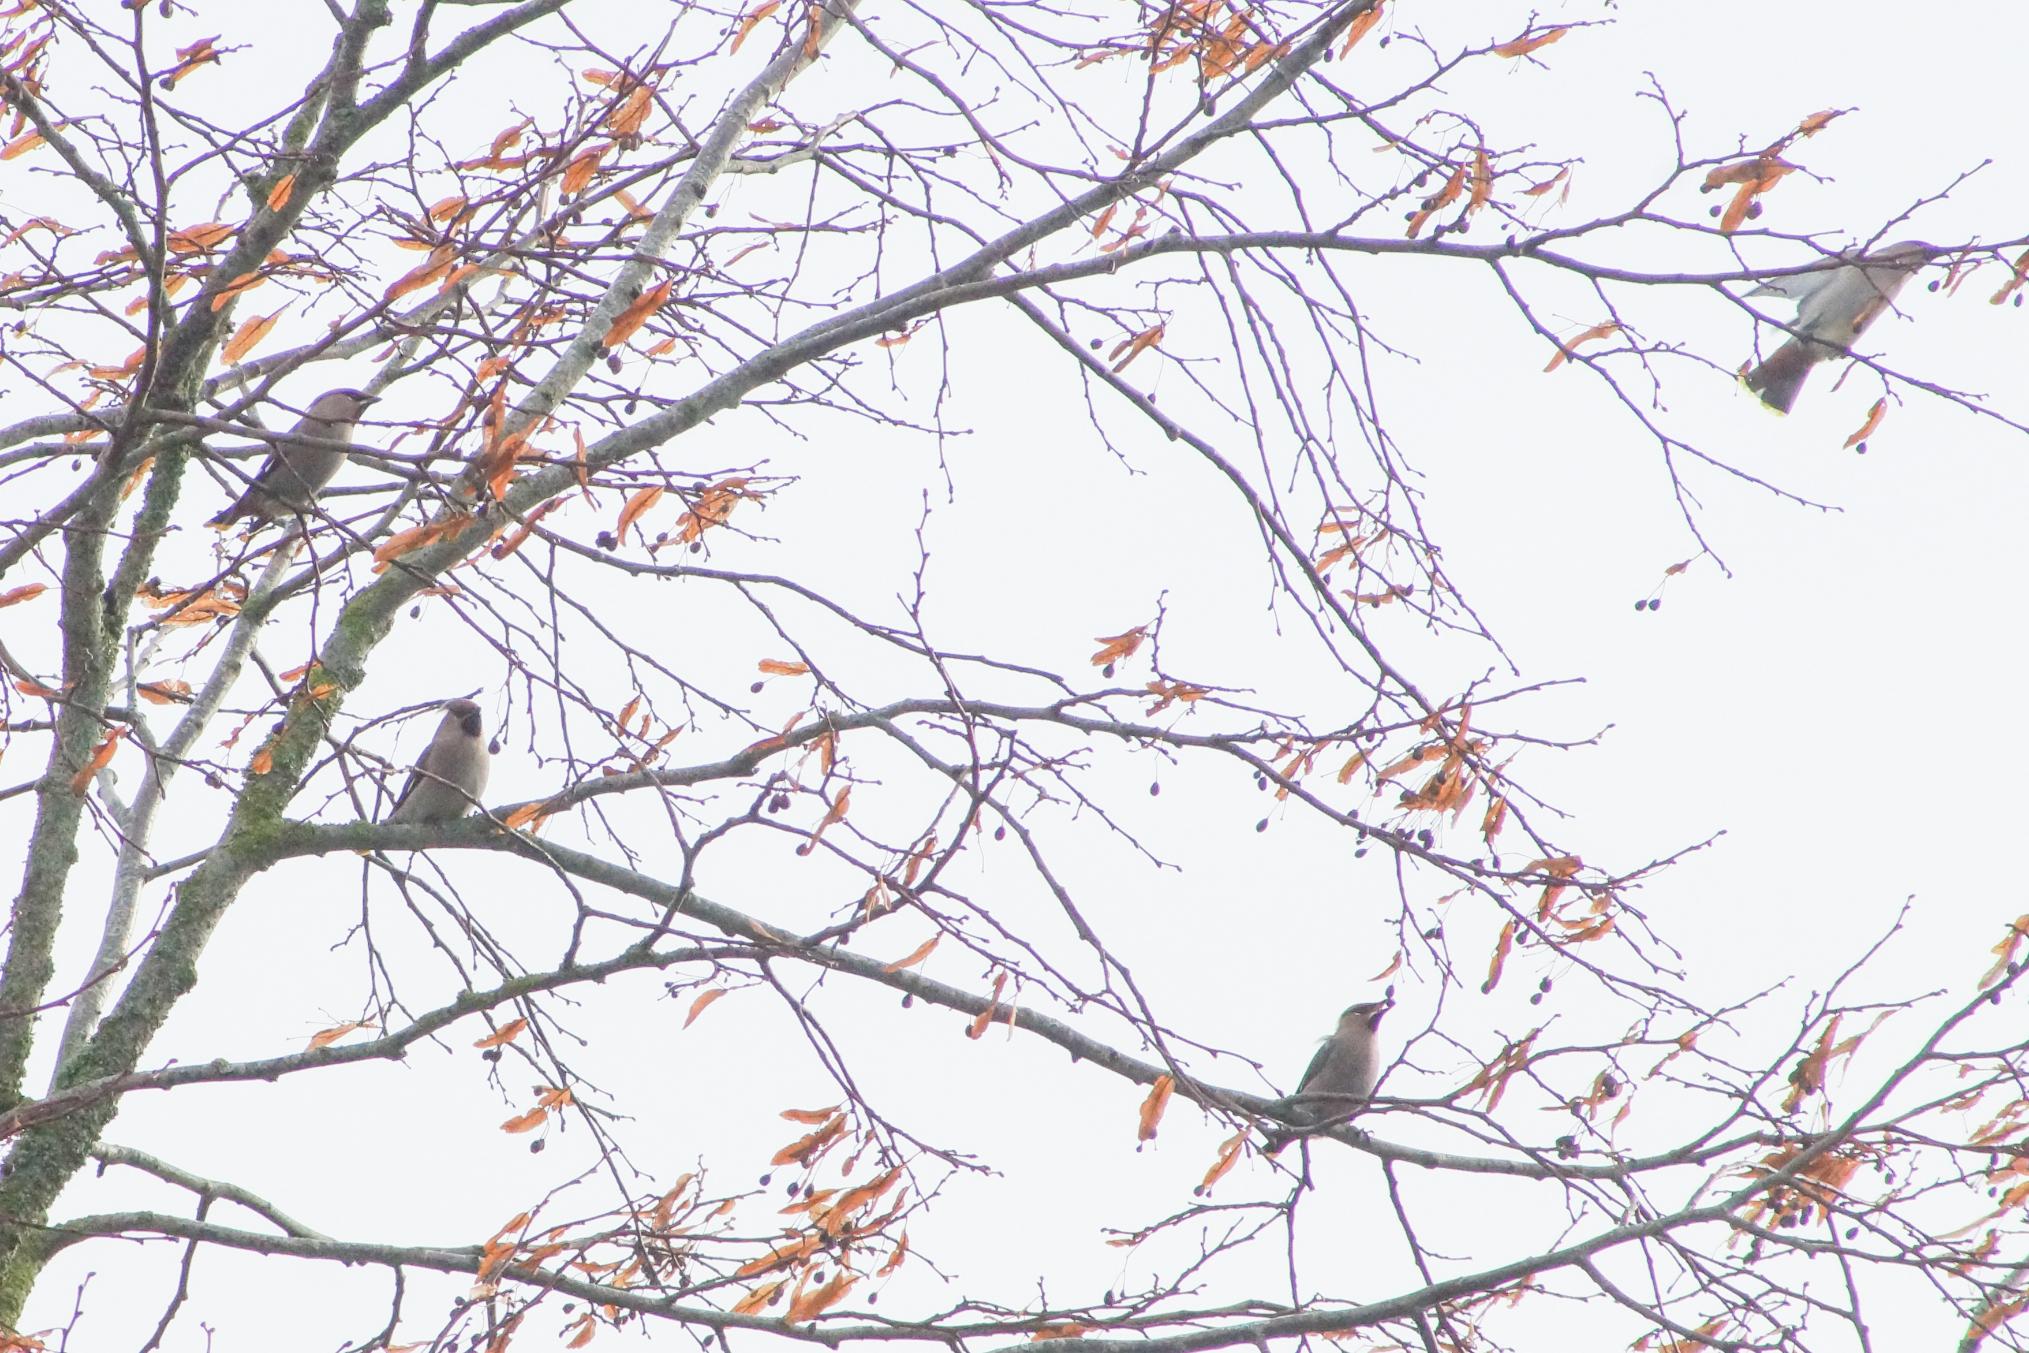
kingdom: Animalia
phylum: Chordata
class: Aves
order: Passeriformes
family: Bombycillidae
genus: Bombycilla
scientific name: Bombycilla garrulus
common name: Silkehale
